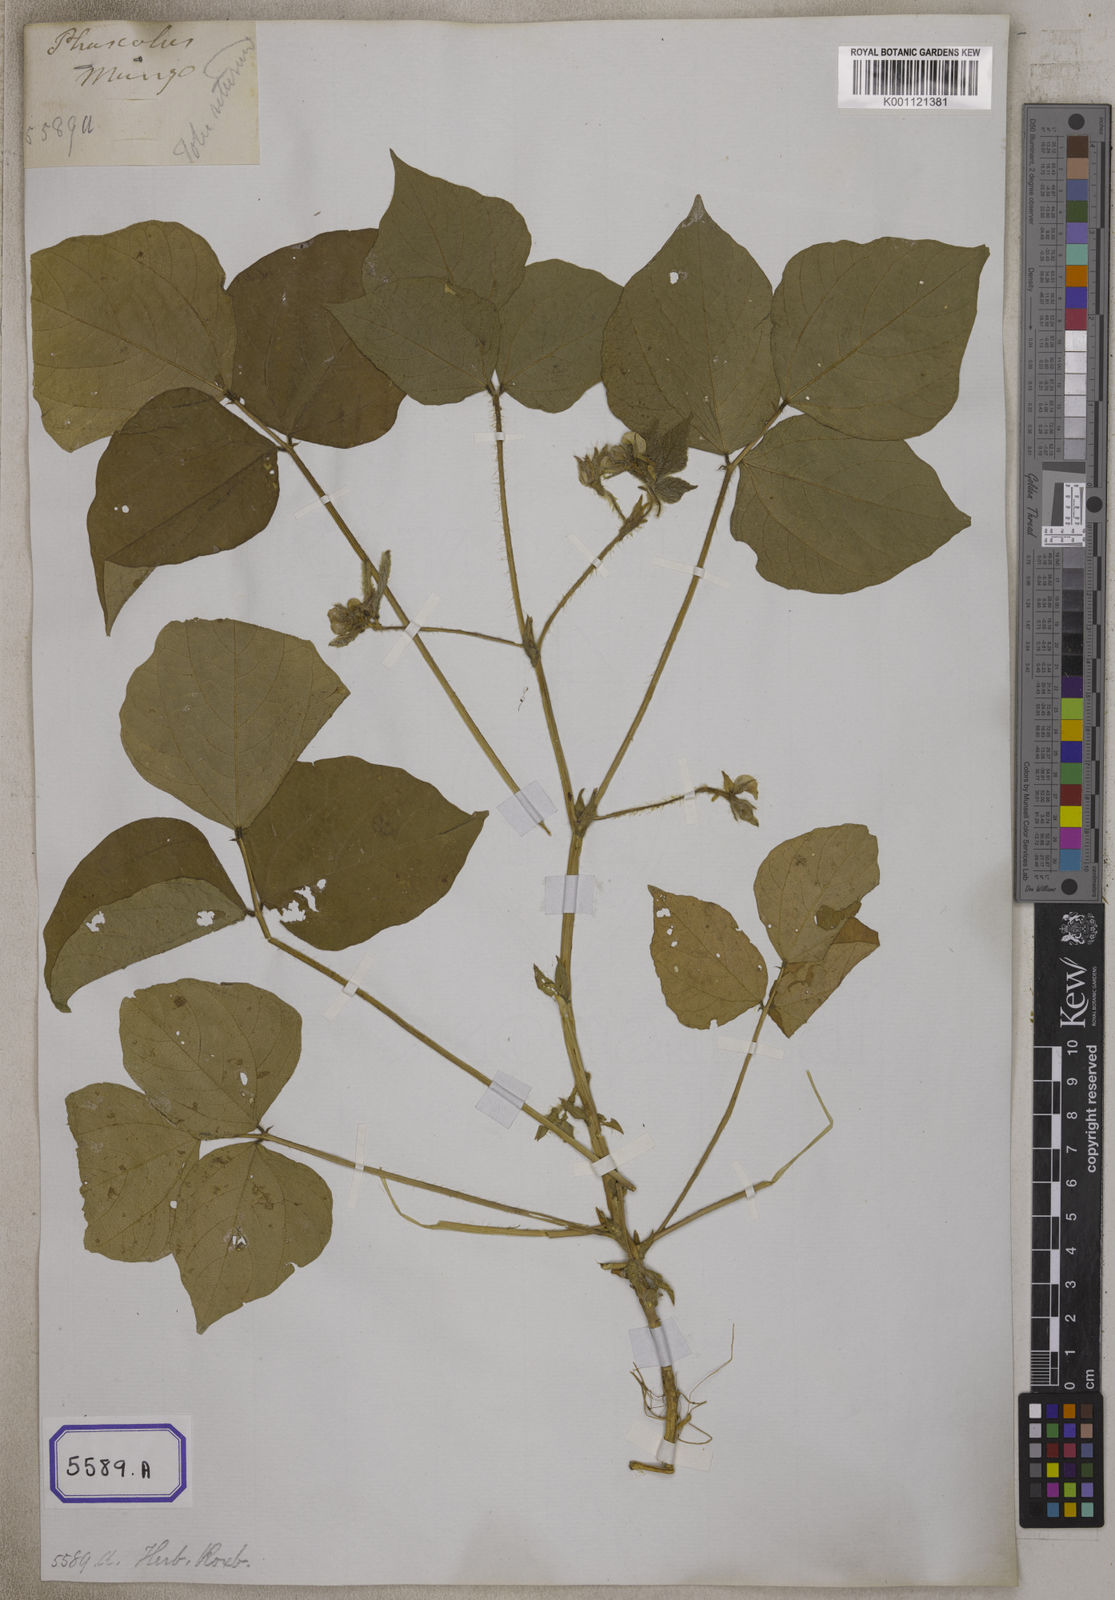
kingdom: Plantae
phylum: Tracheophyta
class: Magnoliopsida
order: Fabales
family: Fabaceae
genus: Phaseolus
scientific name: Phaseolus
